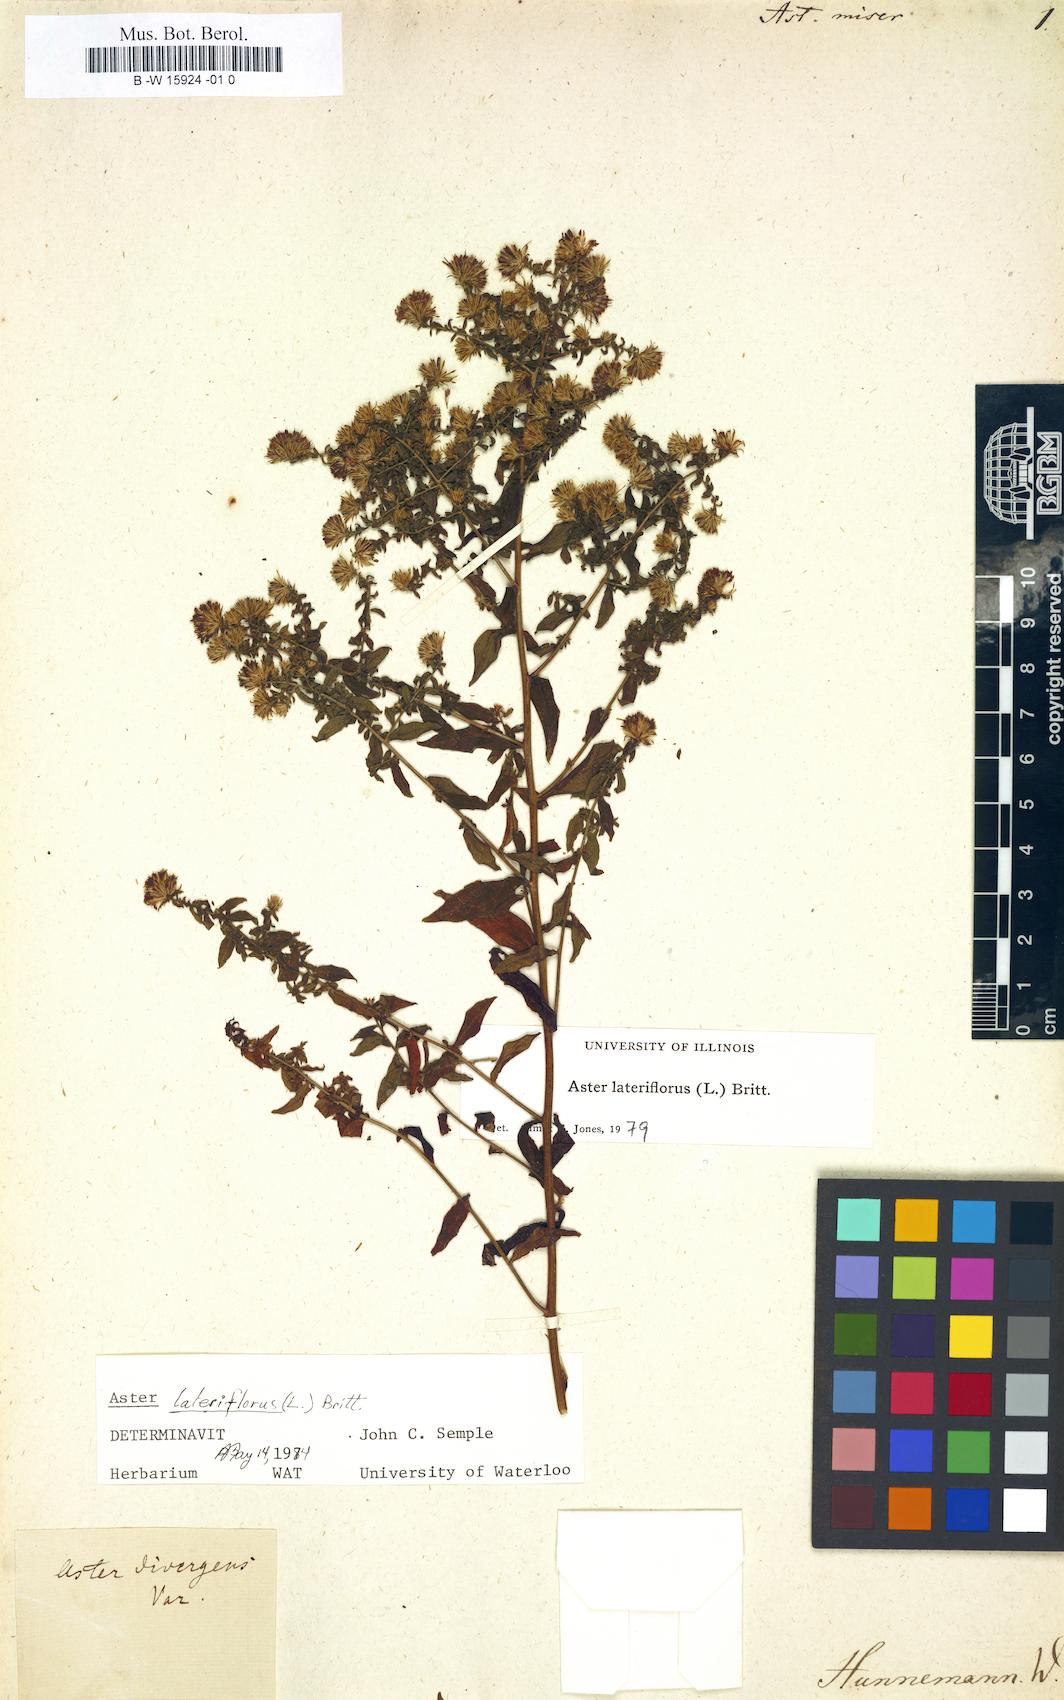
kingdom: Plantae
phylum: Tracheophyta
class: Magnoliopsida
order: Asterales
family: Asteraceae
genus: Aster
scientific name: Aster miser
